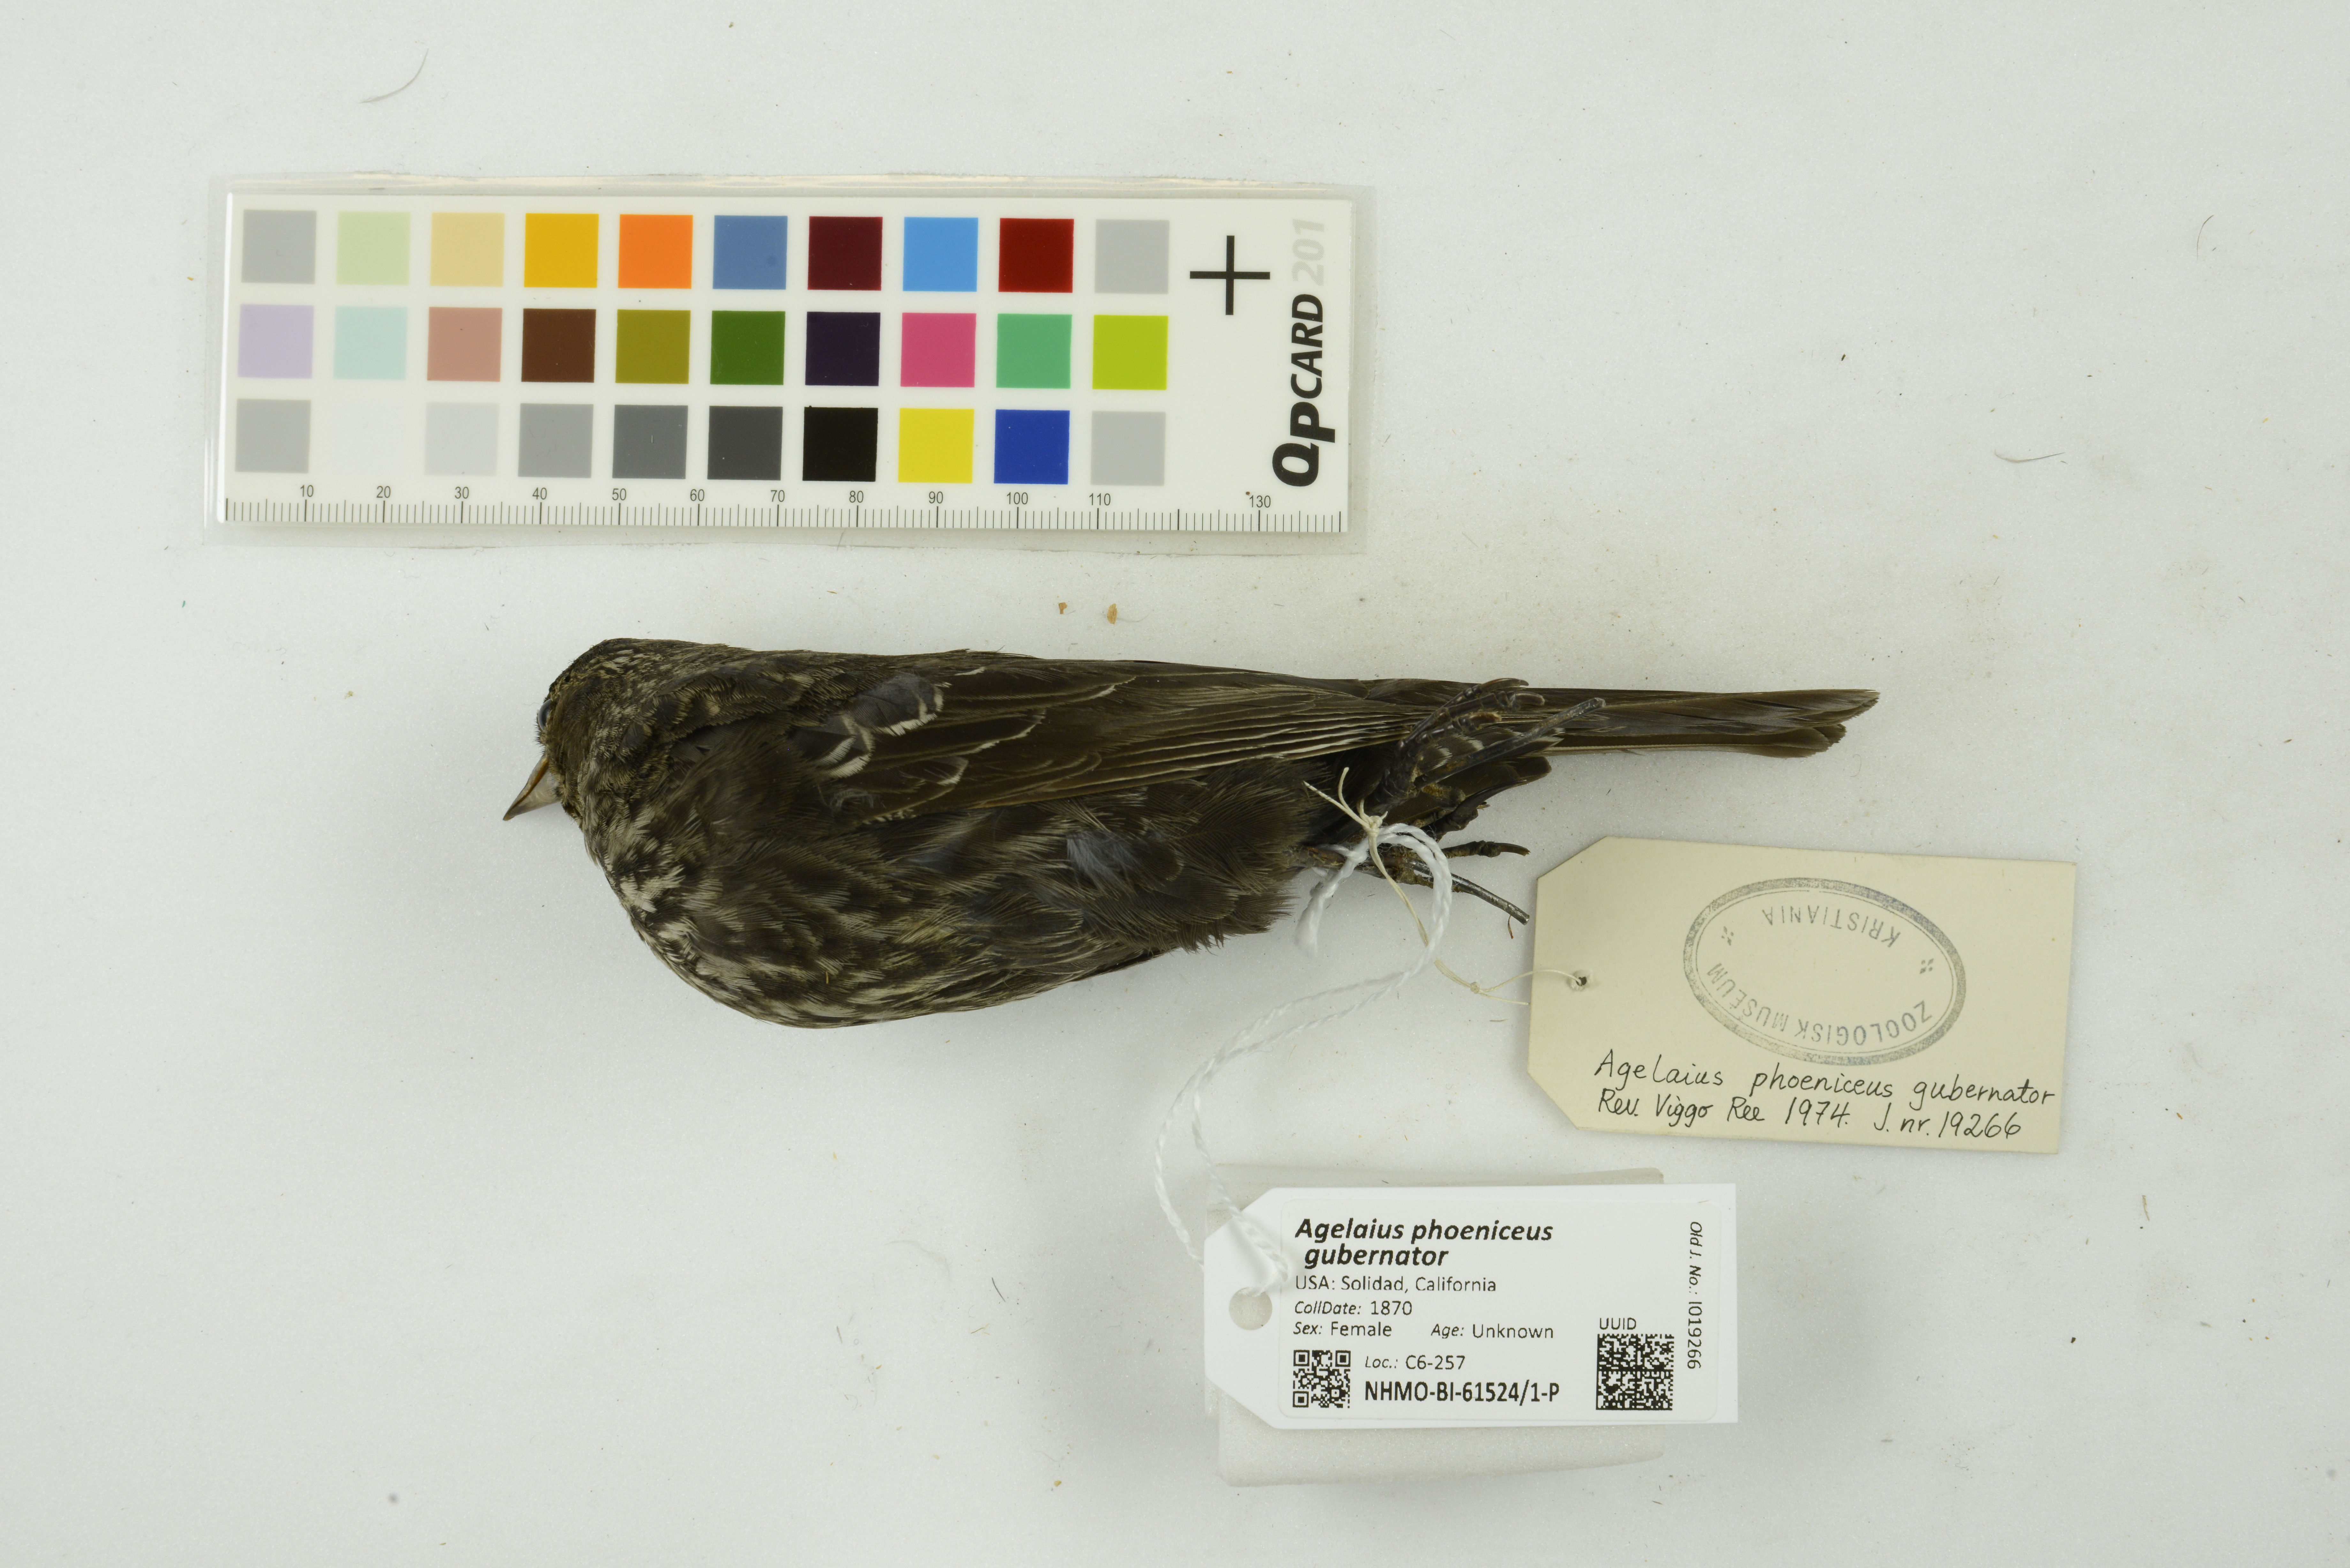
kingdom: Animalia
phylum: Chordata
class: Aves
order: Passeriformes
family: Icteridae
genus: Agelaius
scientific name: Agelaius phoeniceus
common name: Red-winged blackbird
